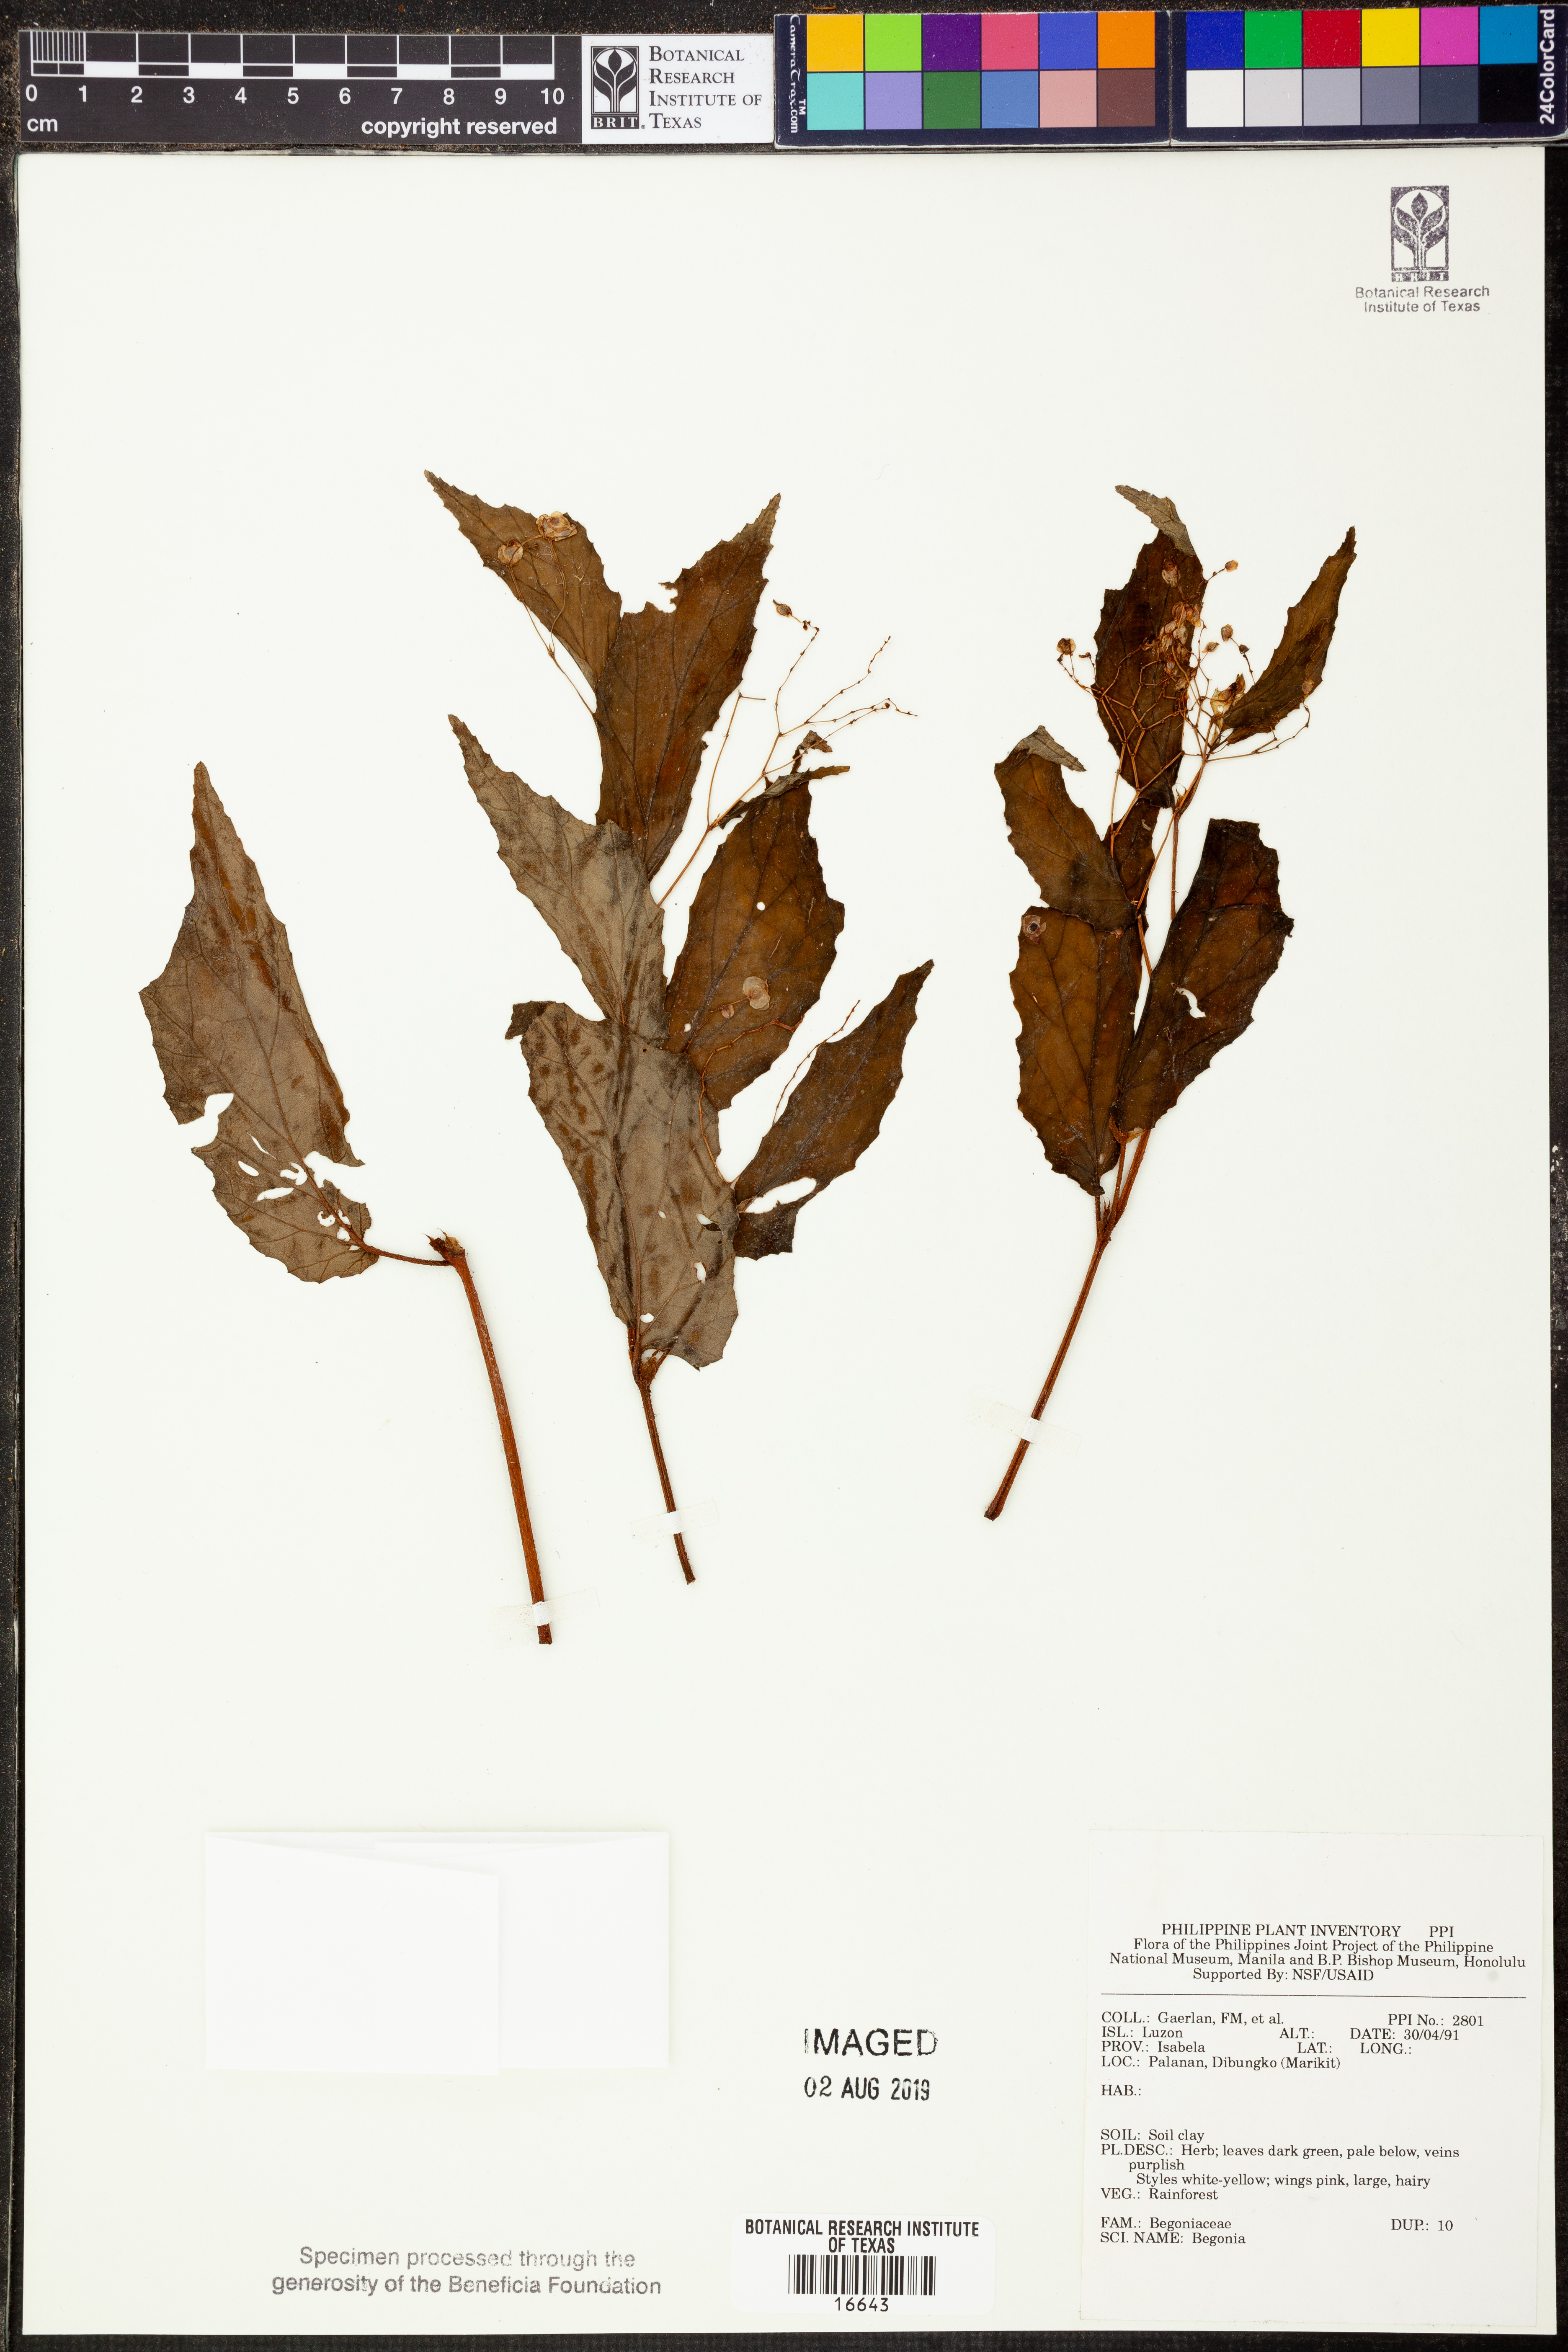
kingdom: Plantae
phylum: Tracheophyta
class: Magnoliopsida
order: Cucurbitales
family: Begoniaceae
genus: Begonia
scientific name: Begonia
